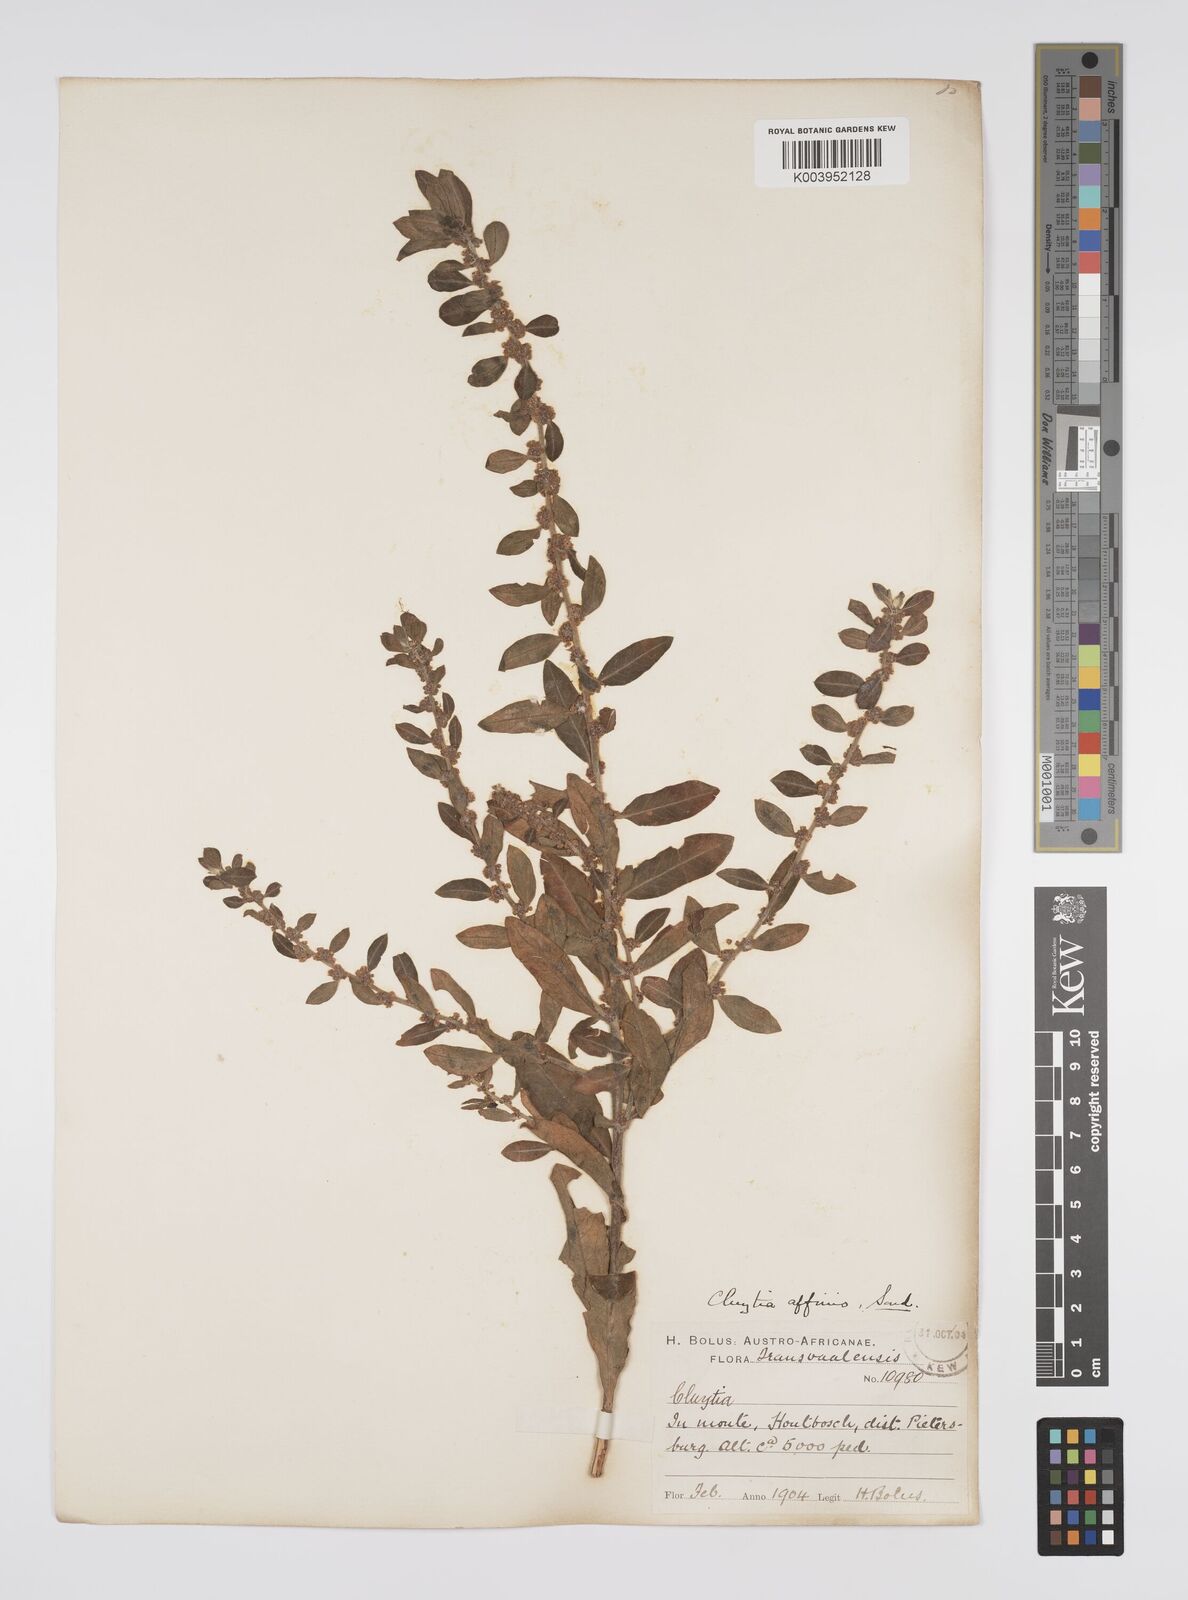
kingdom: Plantae
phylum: Tracheophyta
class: Magnoliopsida
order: Malpighiales
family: Peraceae
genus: Clutia
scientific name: Clutia affinis
